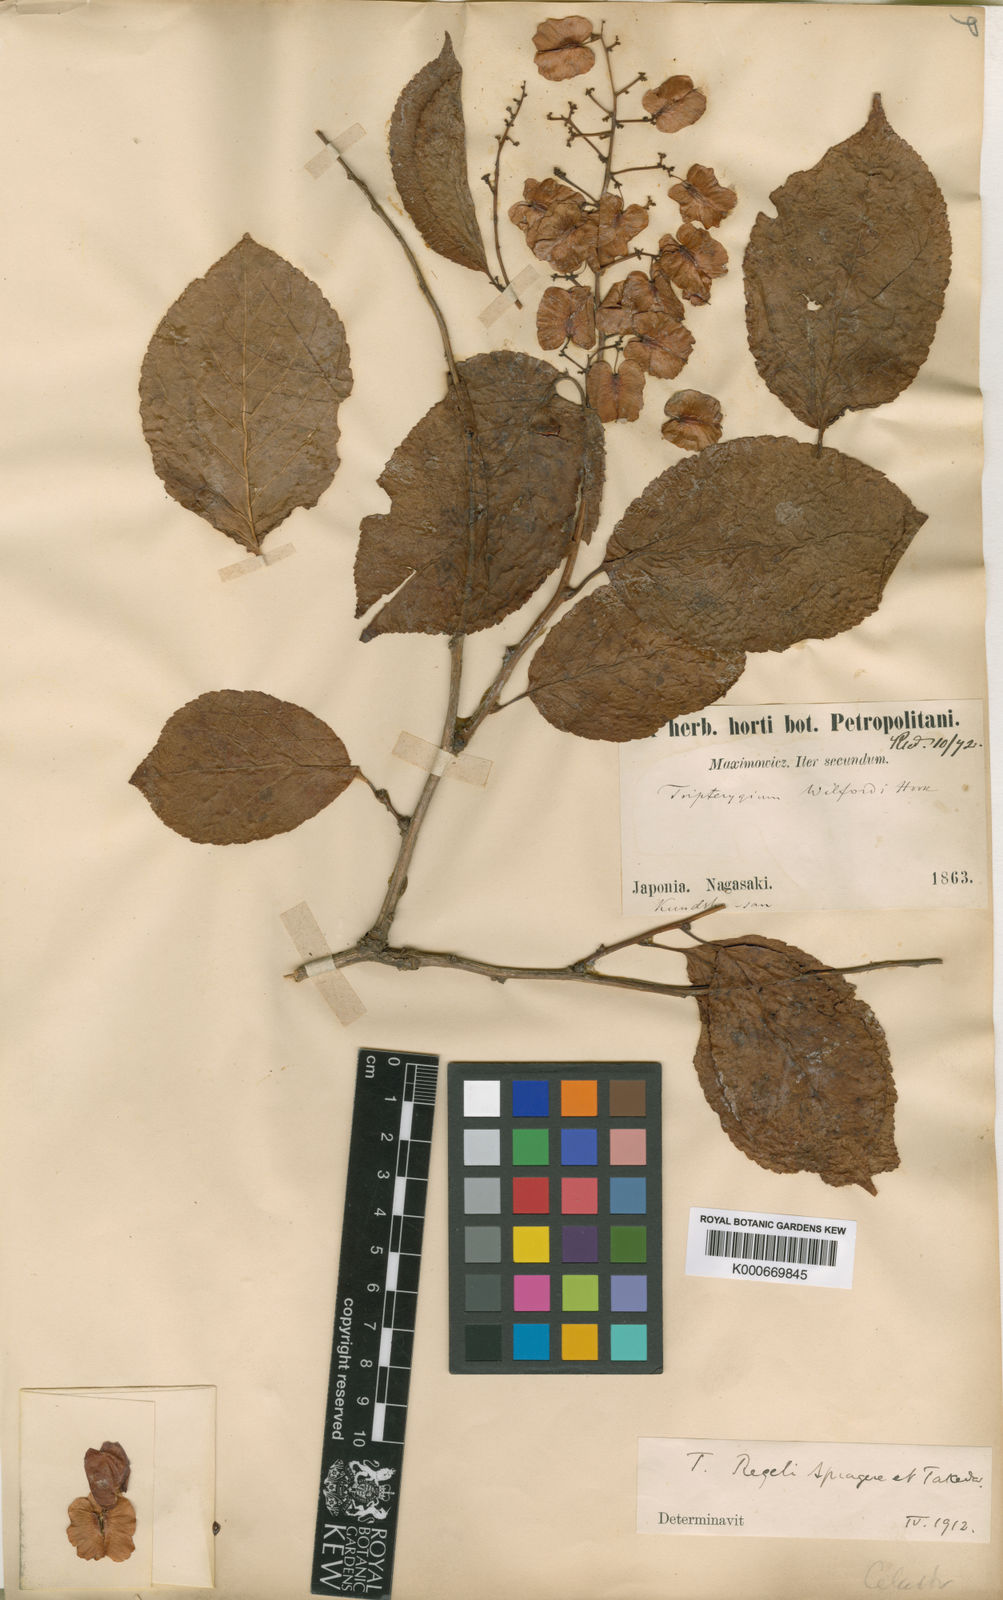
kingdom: Plantae
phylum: Tracheophyta
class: Magnoliopsida
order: Celastrales
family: Celastraceae
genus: Tripterygium
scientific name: Tripterygium wilfordii
